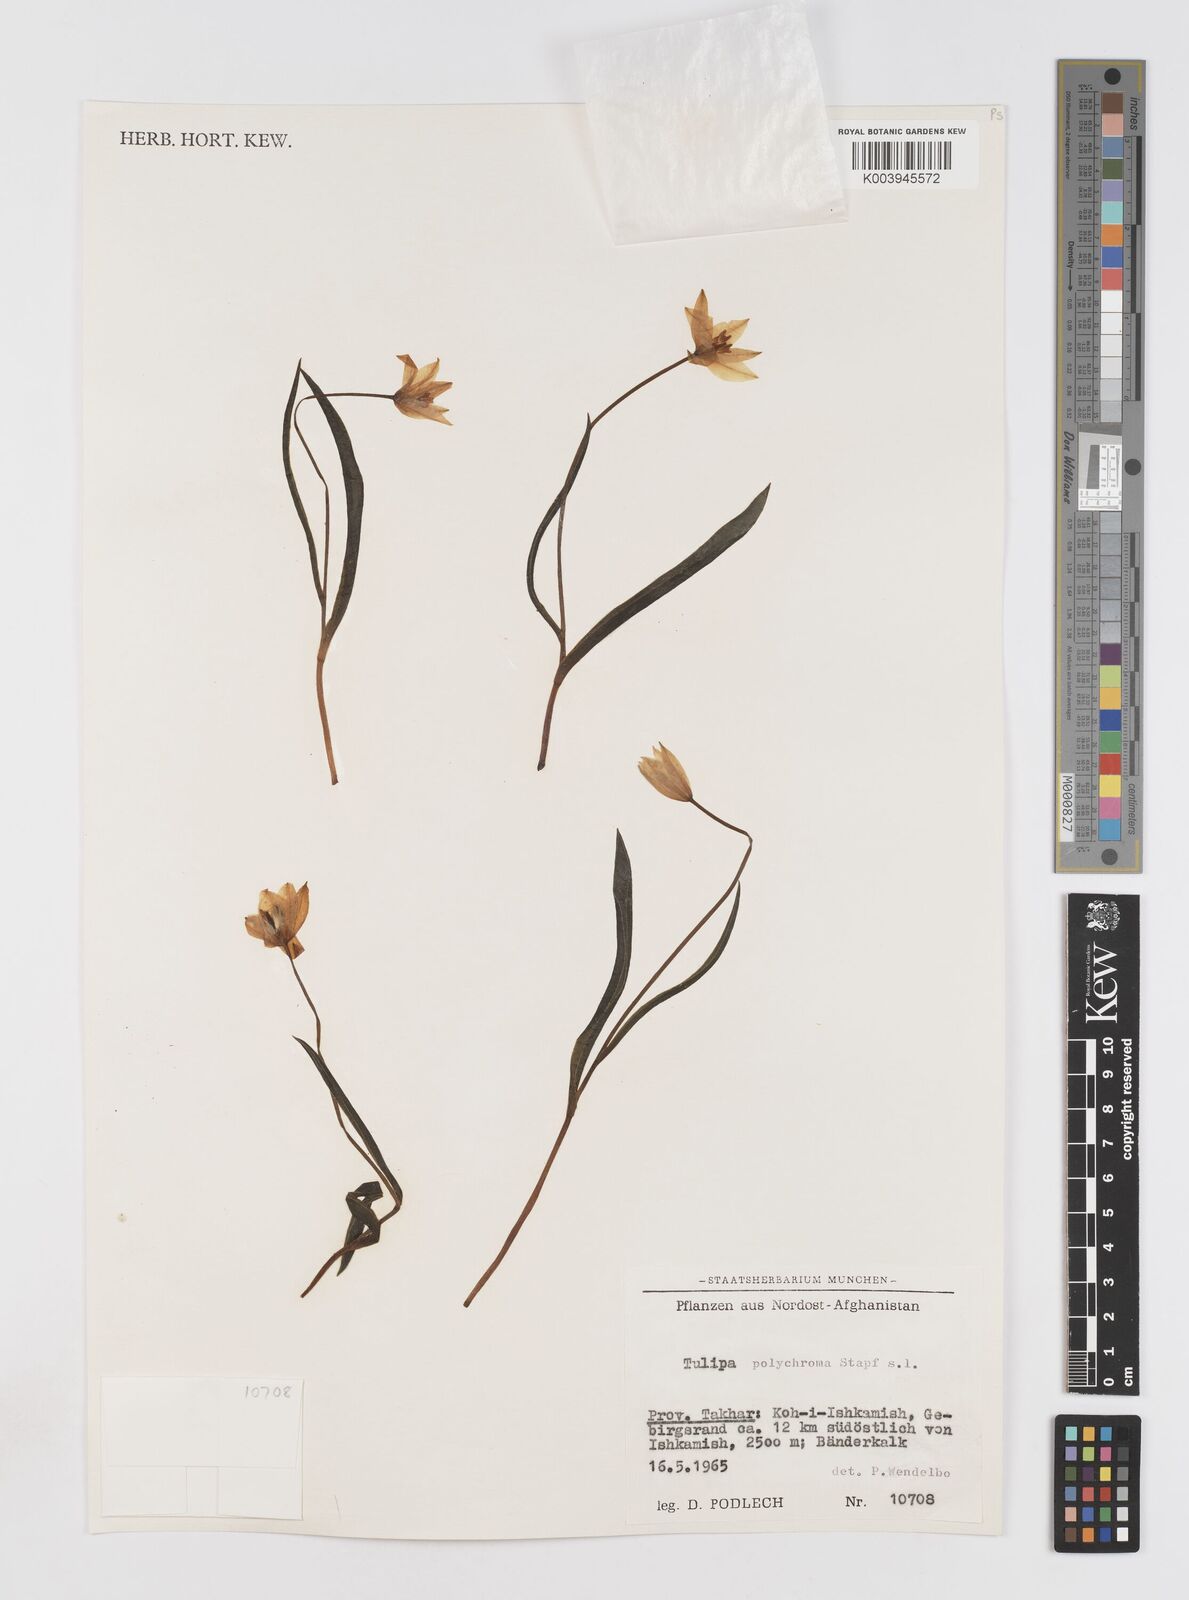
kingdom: Plantae
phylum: Tracheophyta
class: Liliopsida
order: Liliales
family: Liliaceae
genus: Tulipa
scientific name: Tulipa biflora
